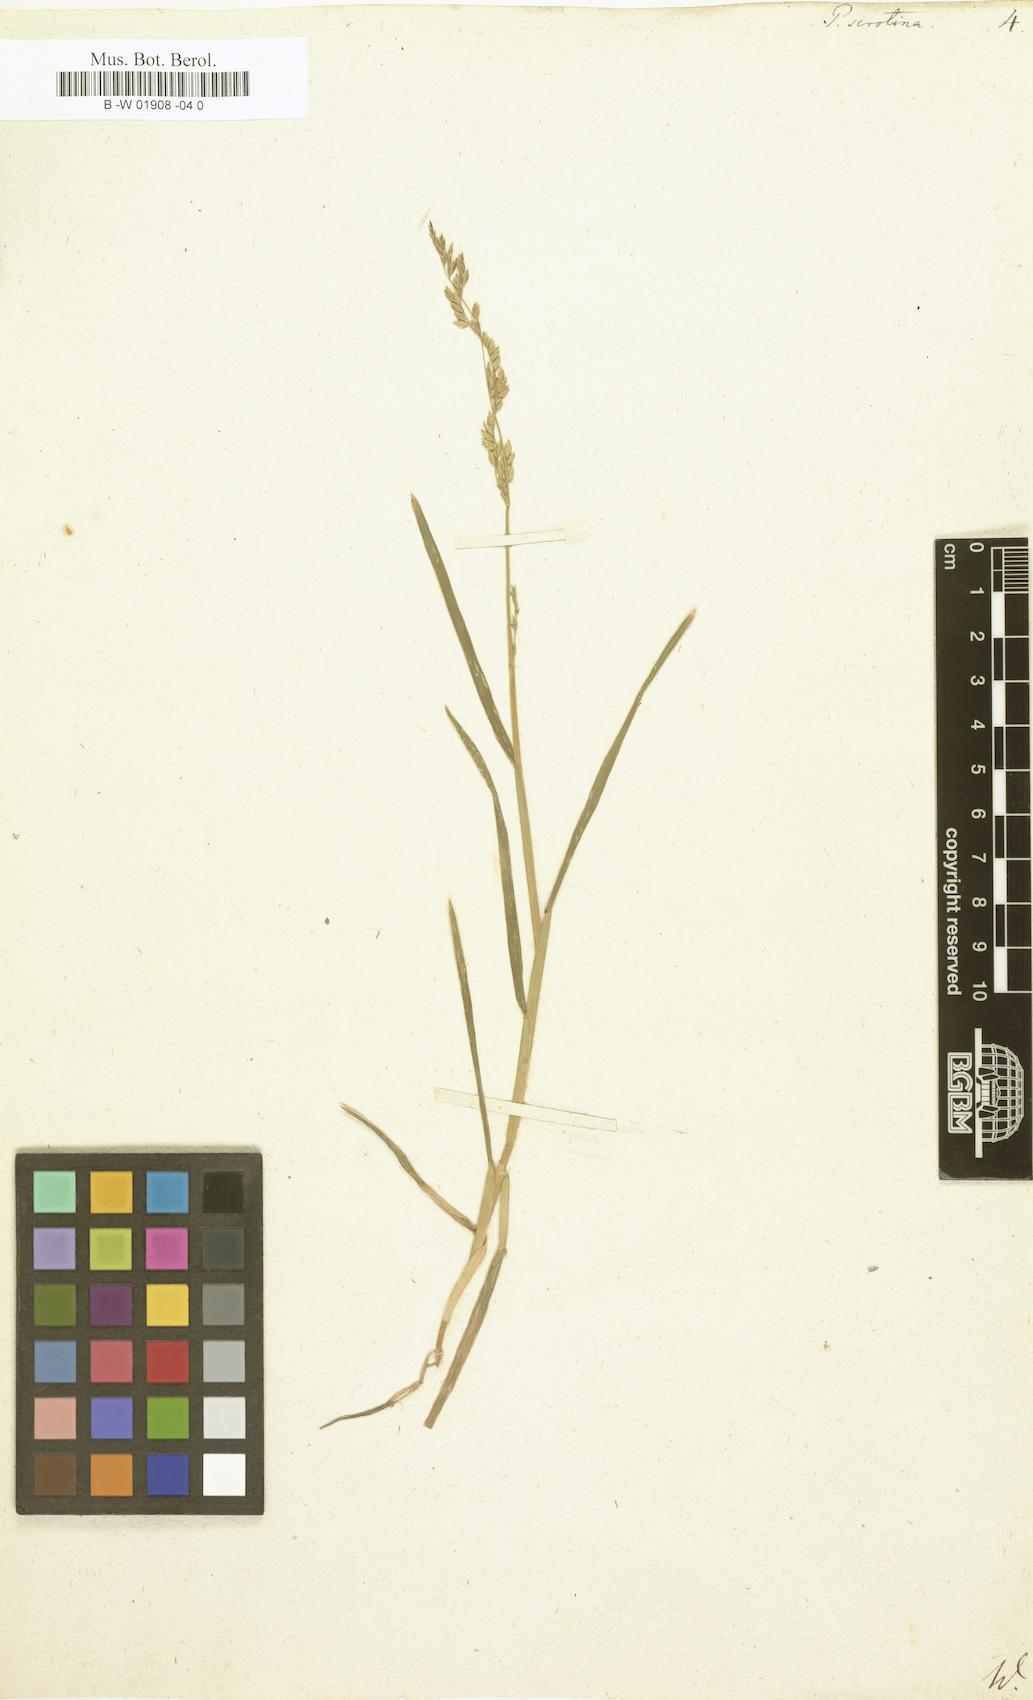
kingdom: Plantae
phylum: Tracheophyta
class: Liliopsida
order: Poales
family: Poaceae
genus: Poa
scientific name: Poa serotina
